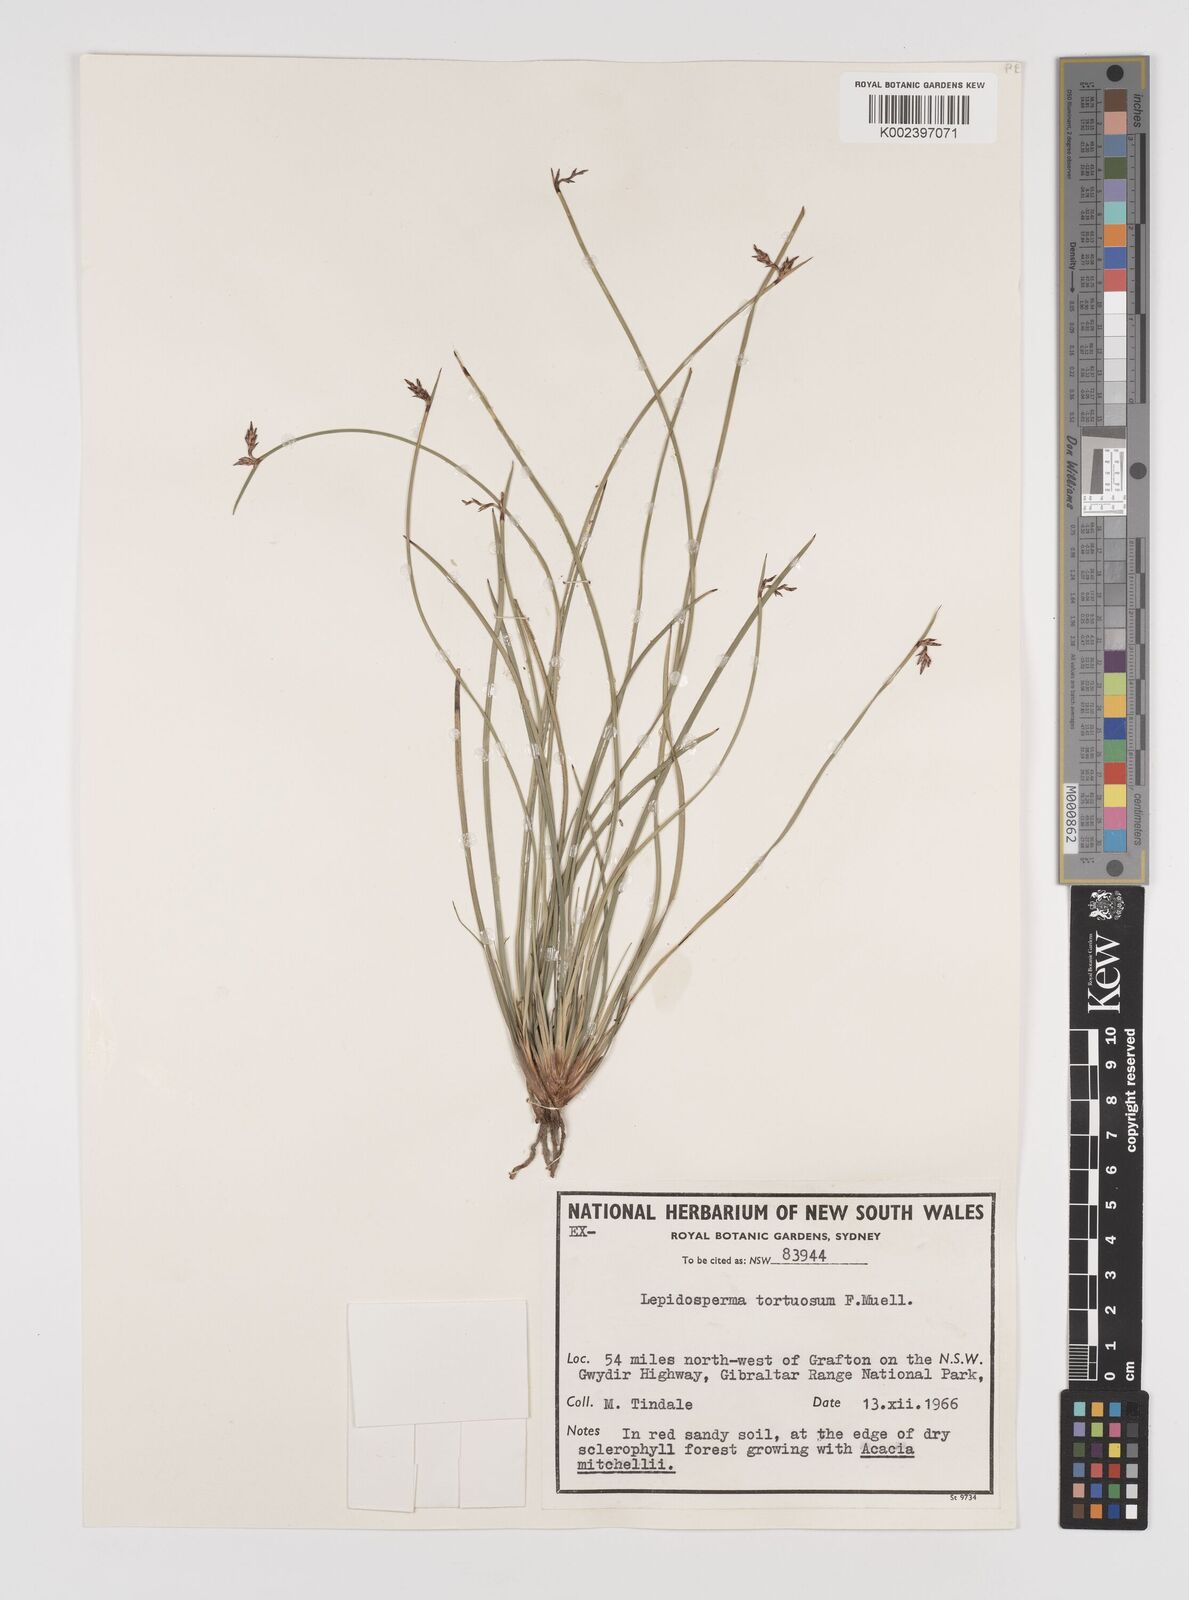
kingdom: Plantae
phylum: Tracheophyta
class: Liliopsida
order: Poales
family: Cyperaceae
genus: Lepidosperma
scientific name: Lepidosperma tortuosum
